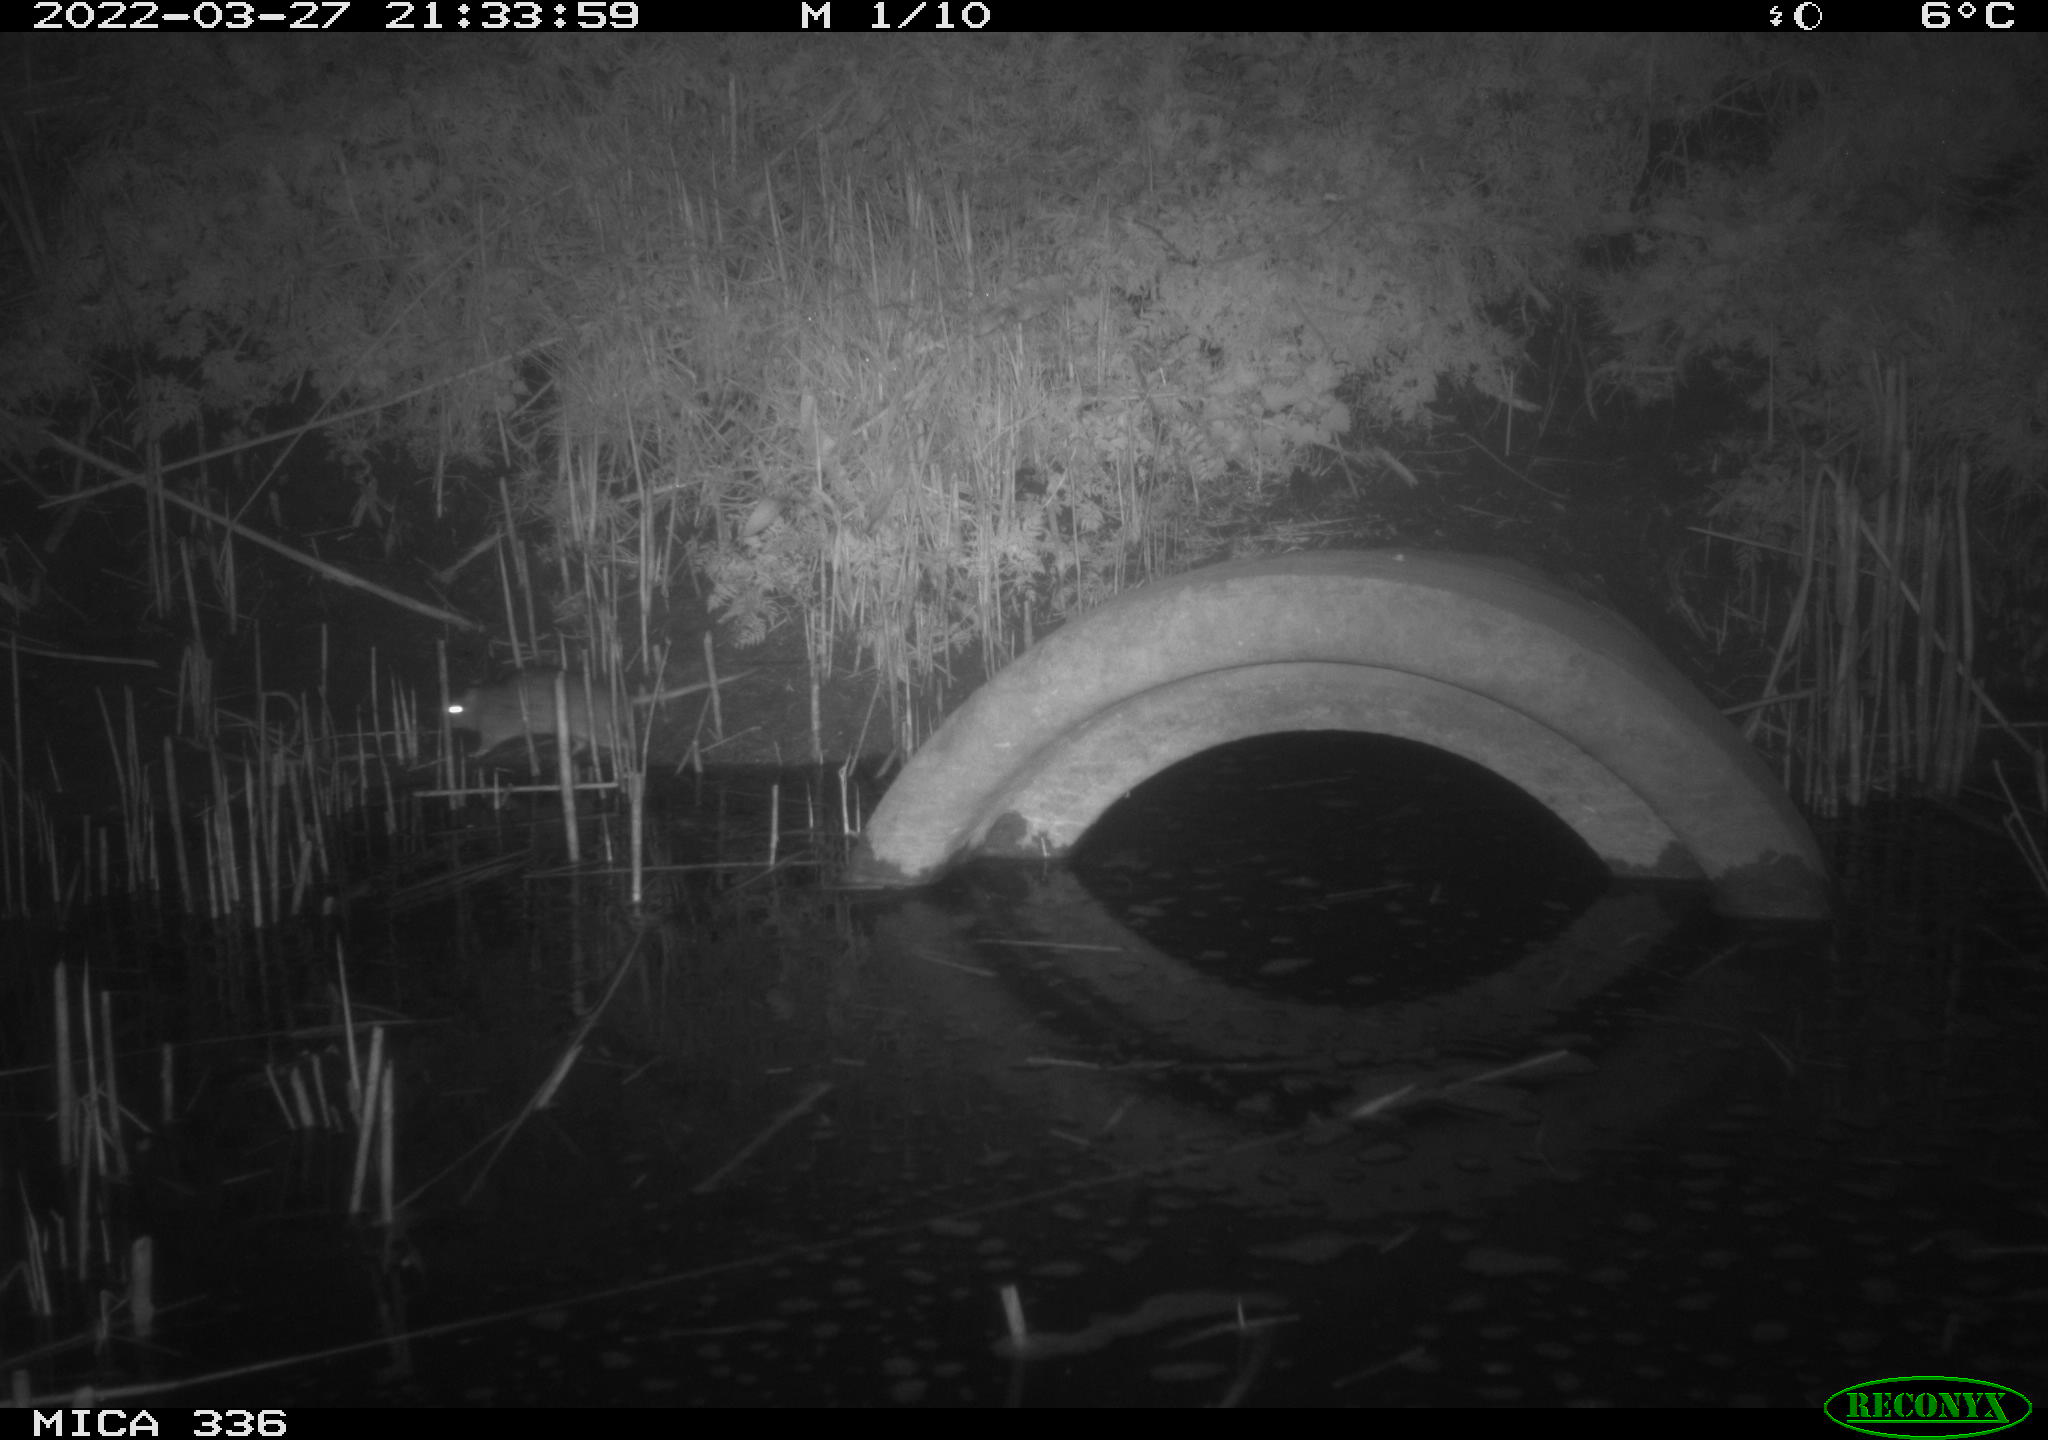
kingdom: Animalia
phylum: Chordata
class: Mammalia
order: Rodentia
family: Muridae
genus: Rattus
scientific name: Rattus norvegicus
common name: Brown rat
